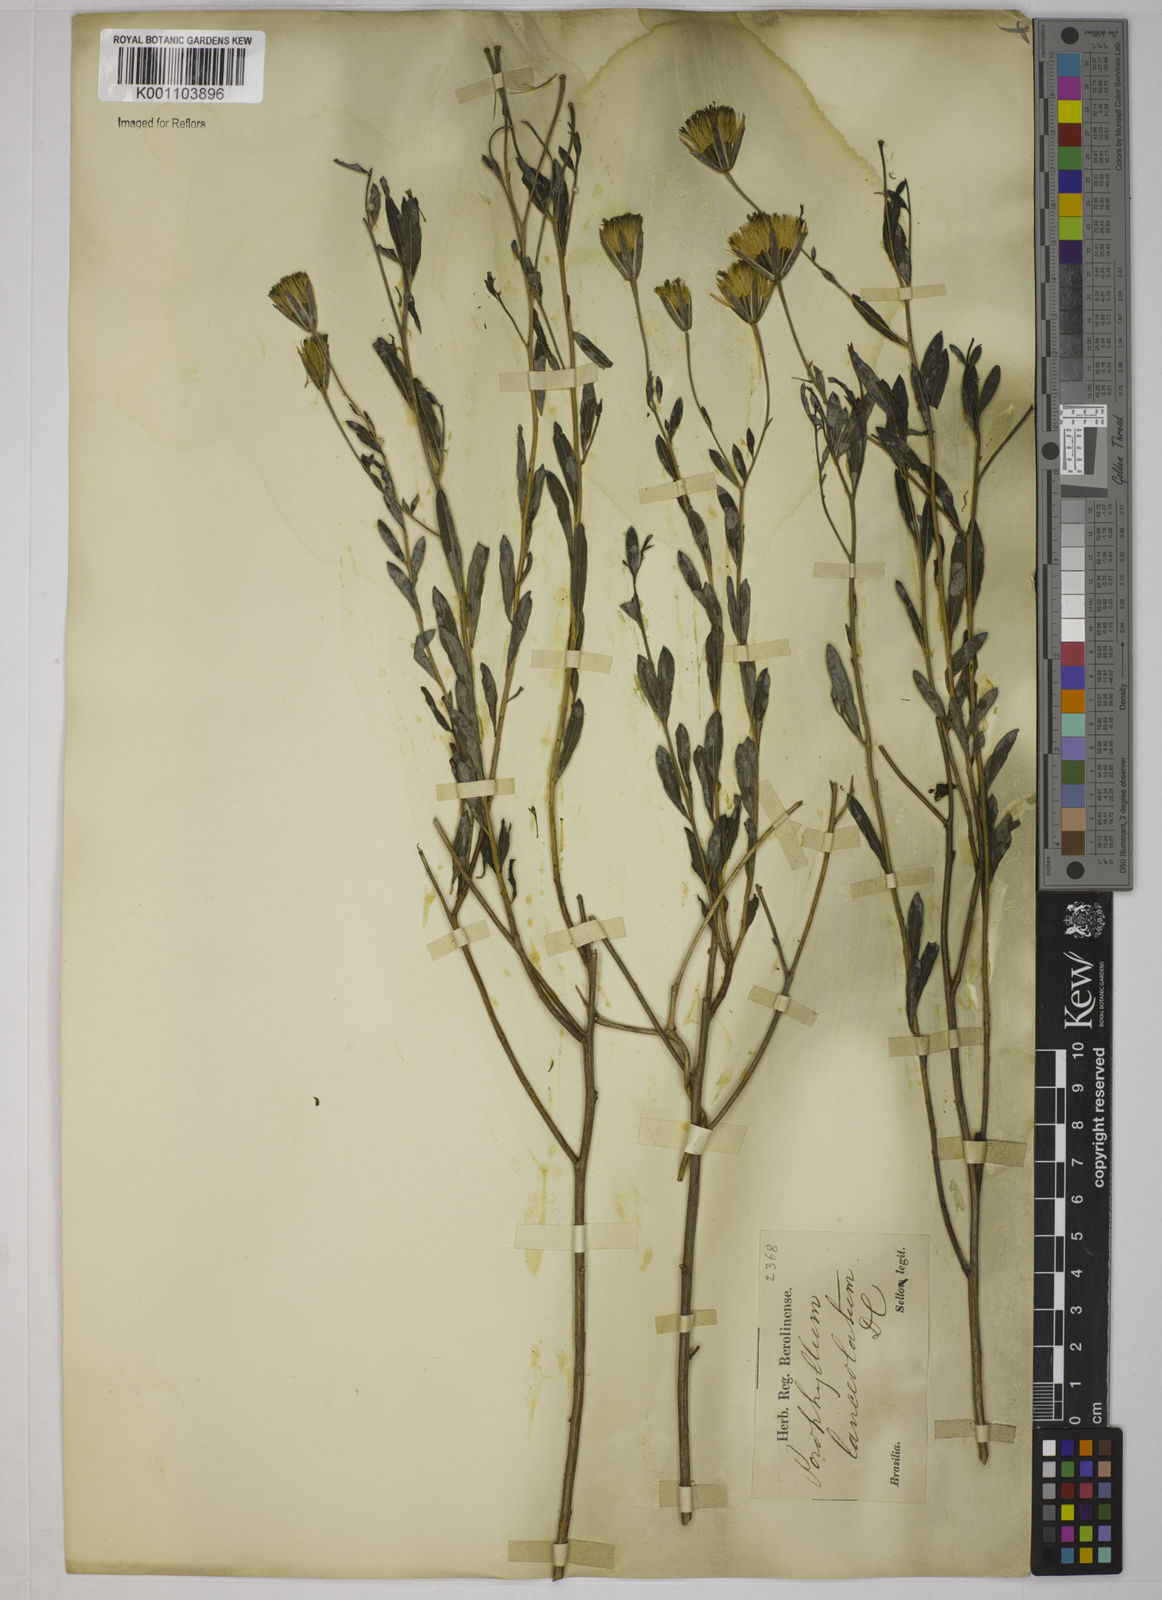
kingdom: Plantae
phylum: Tracheophyta
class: Magnoliopsida
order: Asterales
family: Asteraceae
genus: Porophyllum
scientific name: Porophyllum obscurum
